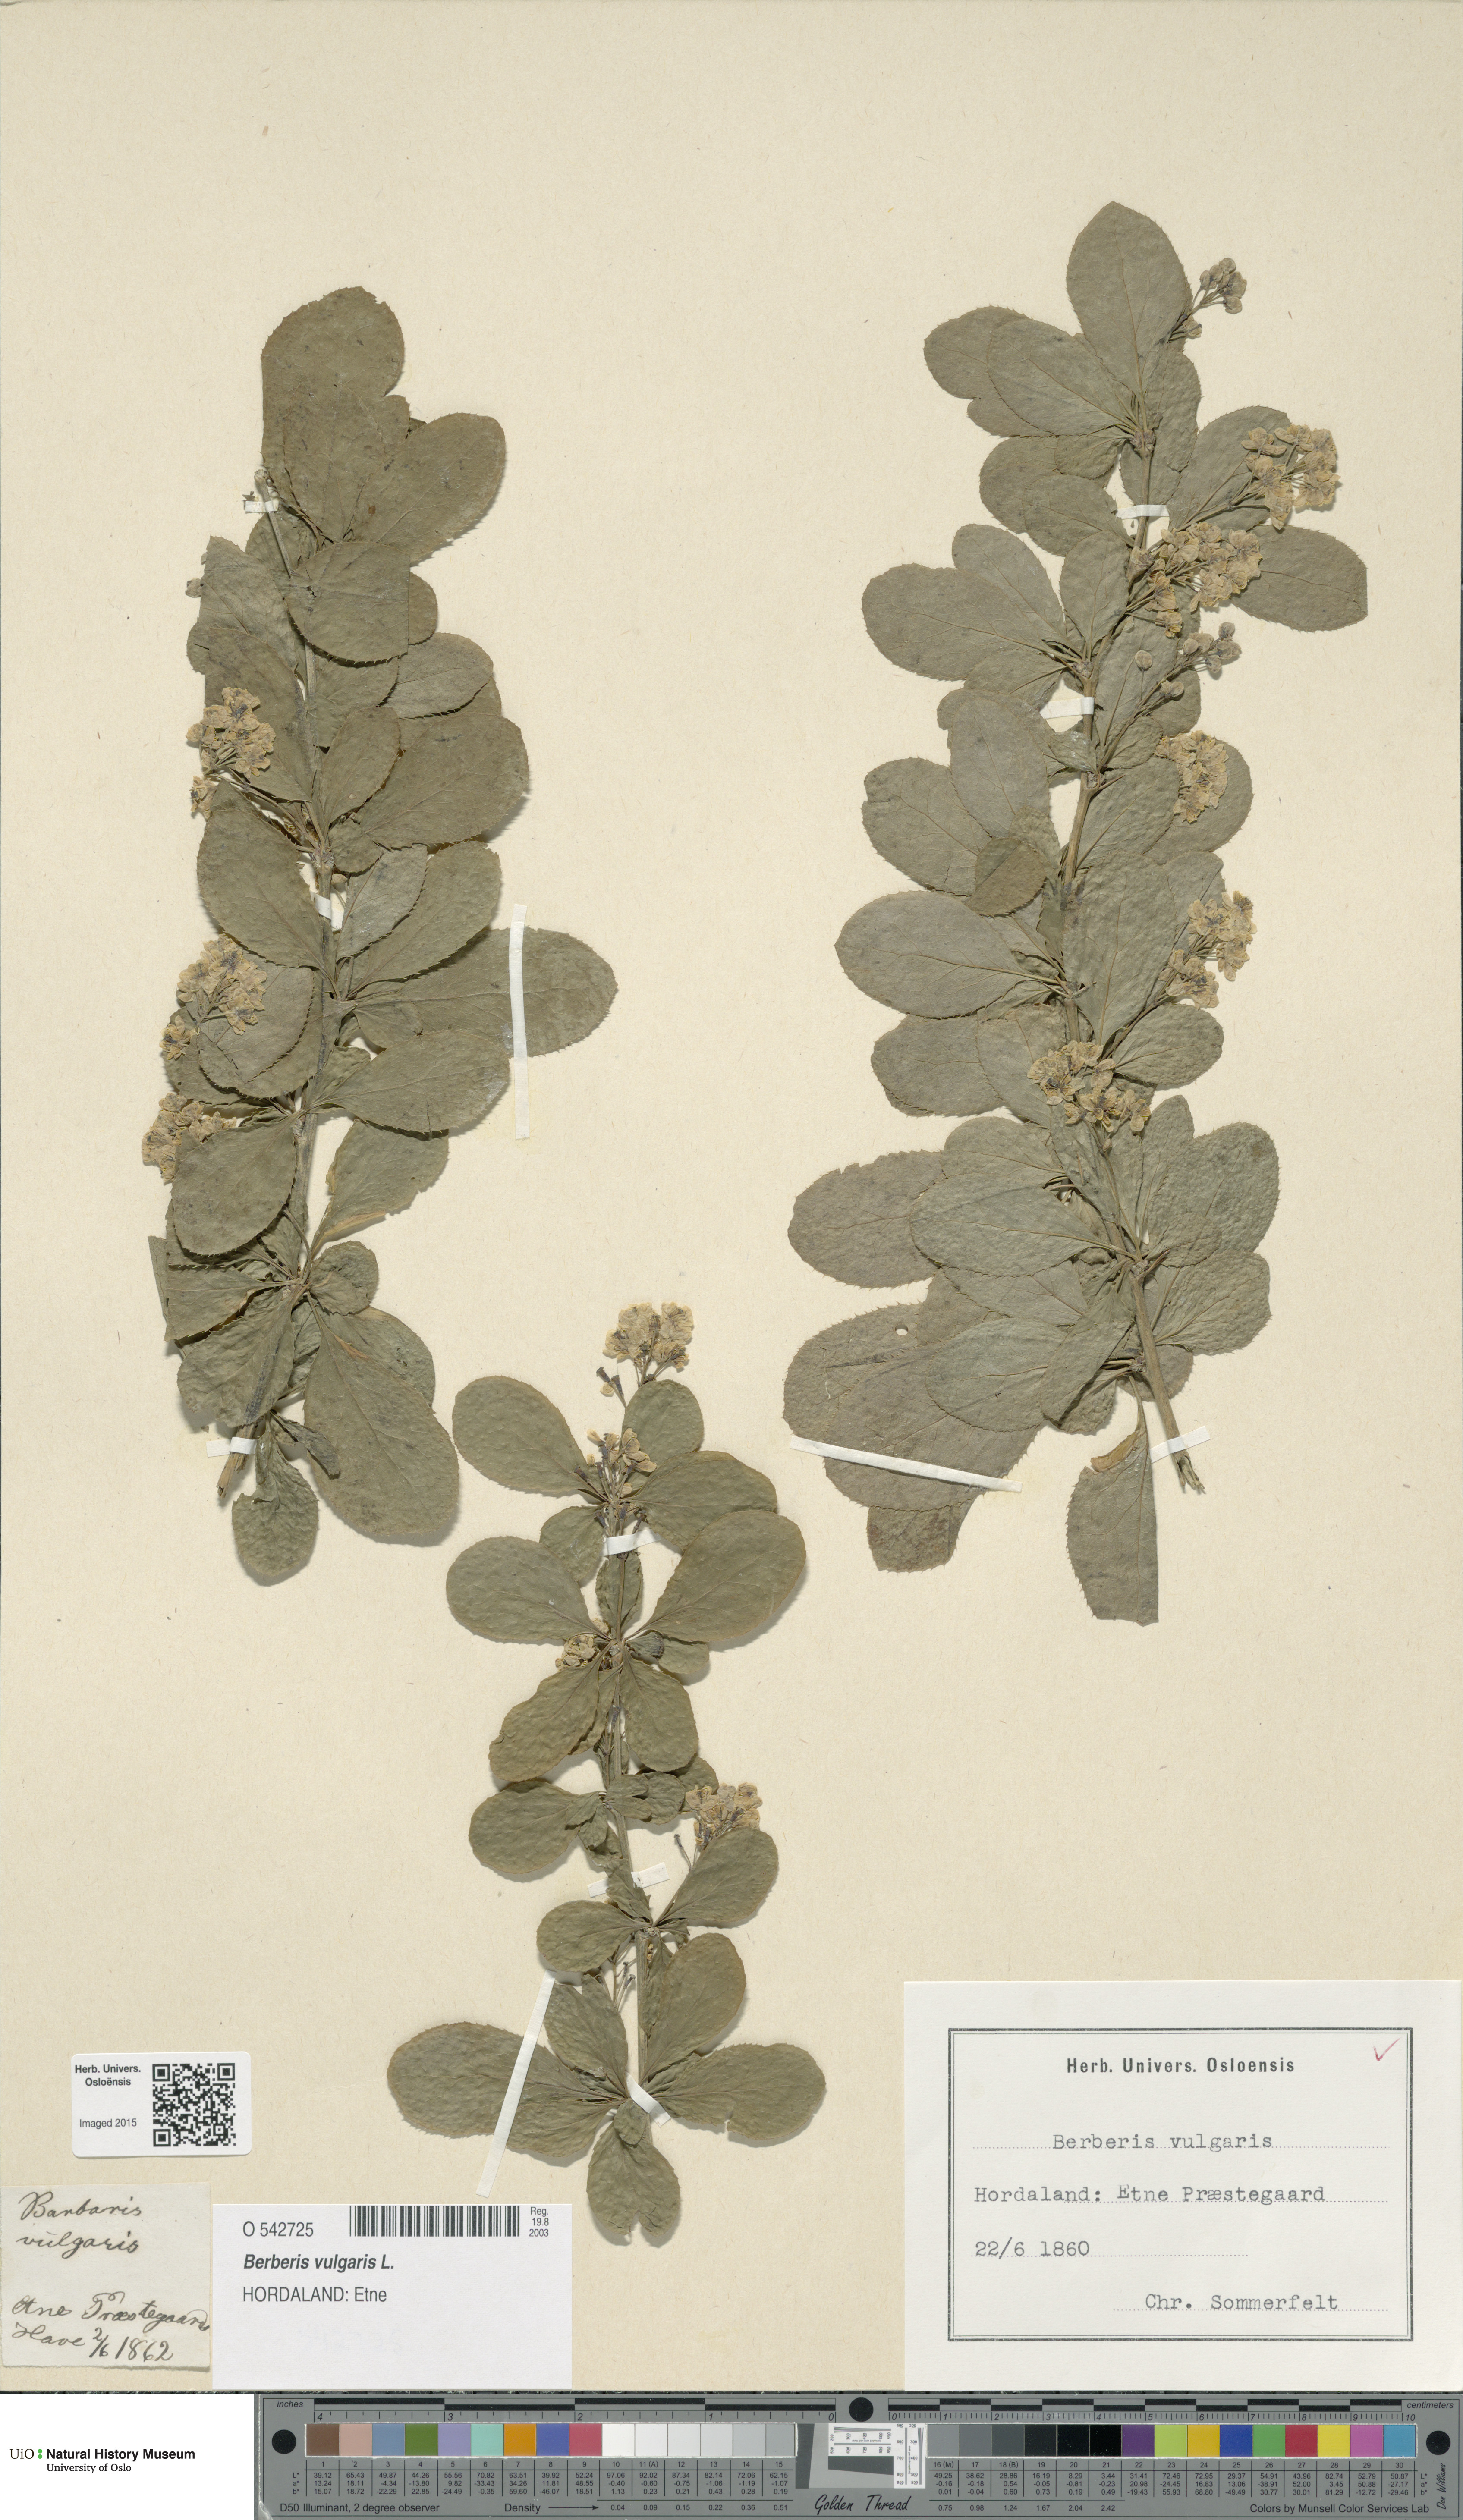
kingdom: Plantae
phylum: Tracheophyta
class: Magnoliopsida
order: Ranunculales
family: Berberidaceae
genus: Berberis
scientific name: Berberis vulgaris
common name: Barberry
